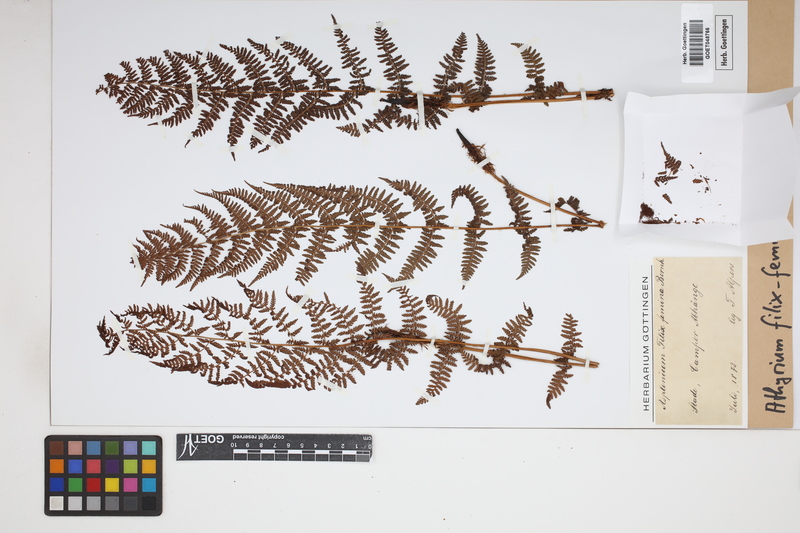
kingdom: Plantae
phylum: Tracheophyta
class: Polypodiopsida
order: Polypodiales
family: Athyriaceae
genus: Athyrium
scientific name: Athyrium filix-femina
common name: Lady fern
